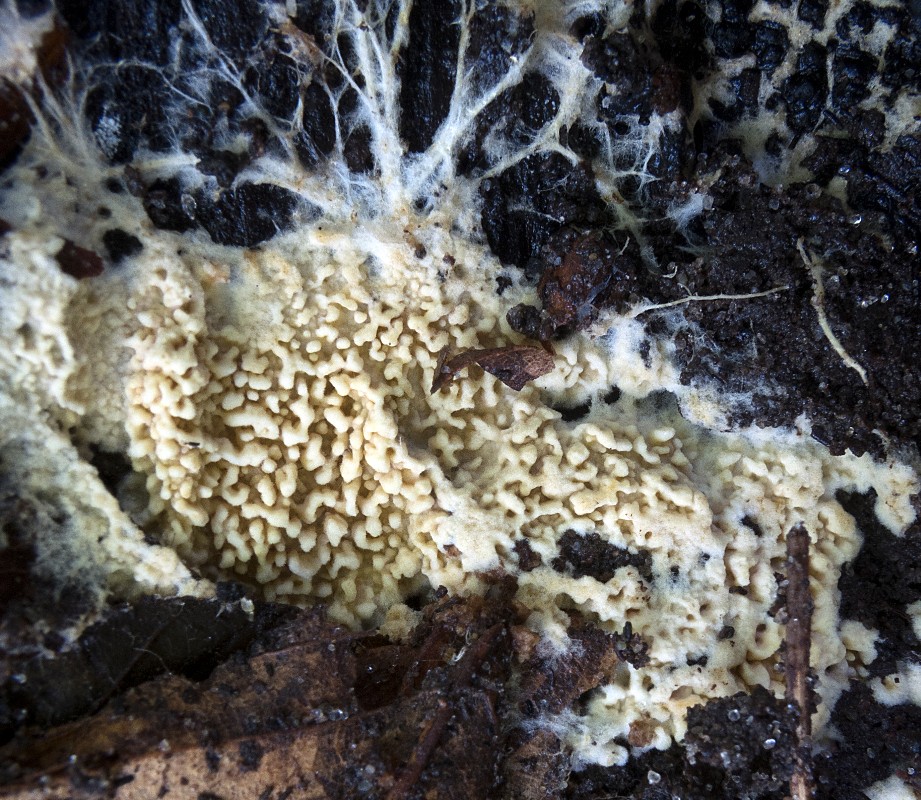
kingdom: Fungi
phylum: Basidiomycota
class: Agaricomycetes
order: Agaricales
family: Stephanosporaceae
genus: Cristinia
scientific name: Cristinia eichleri
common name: tandet citrushinde
